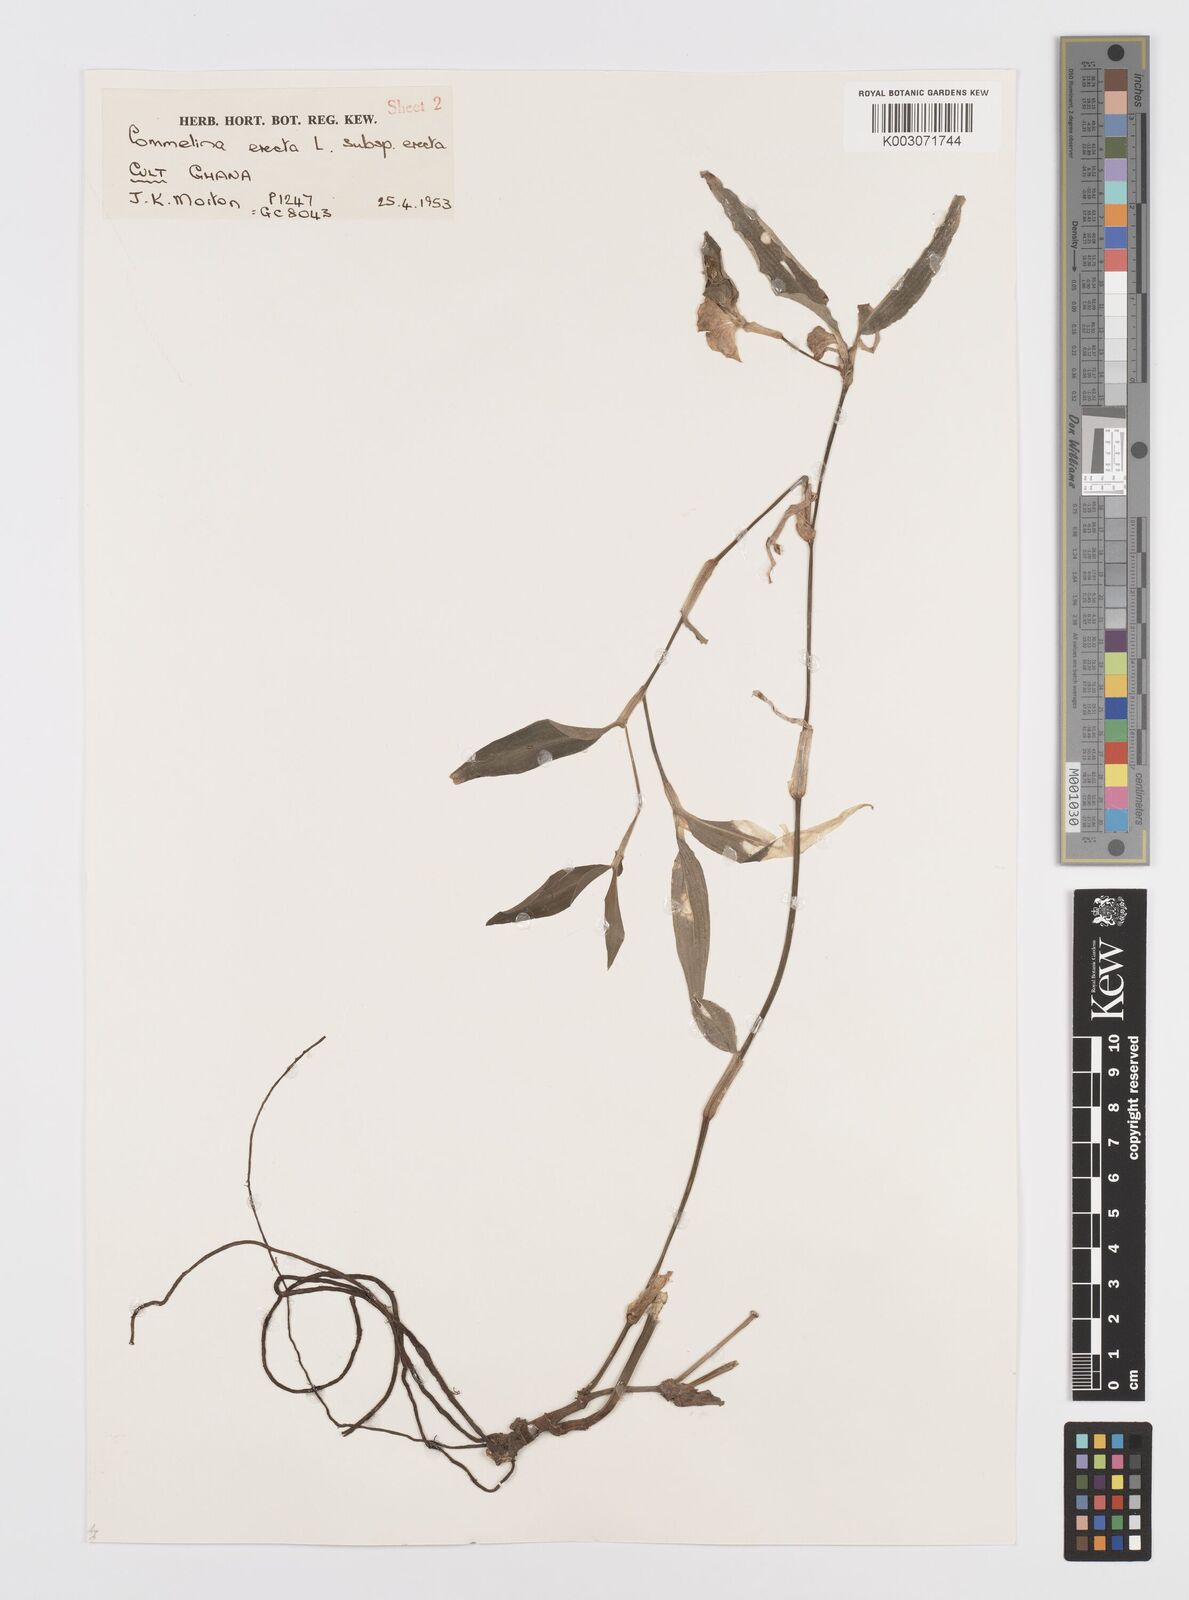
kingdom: Plantae
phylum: Tracheophyta
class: Liliopsida
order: Commelinales
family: Commelinaceae
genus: Commelina
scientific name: Commelina erecta
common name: Blousel blommetjie
